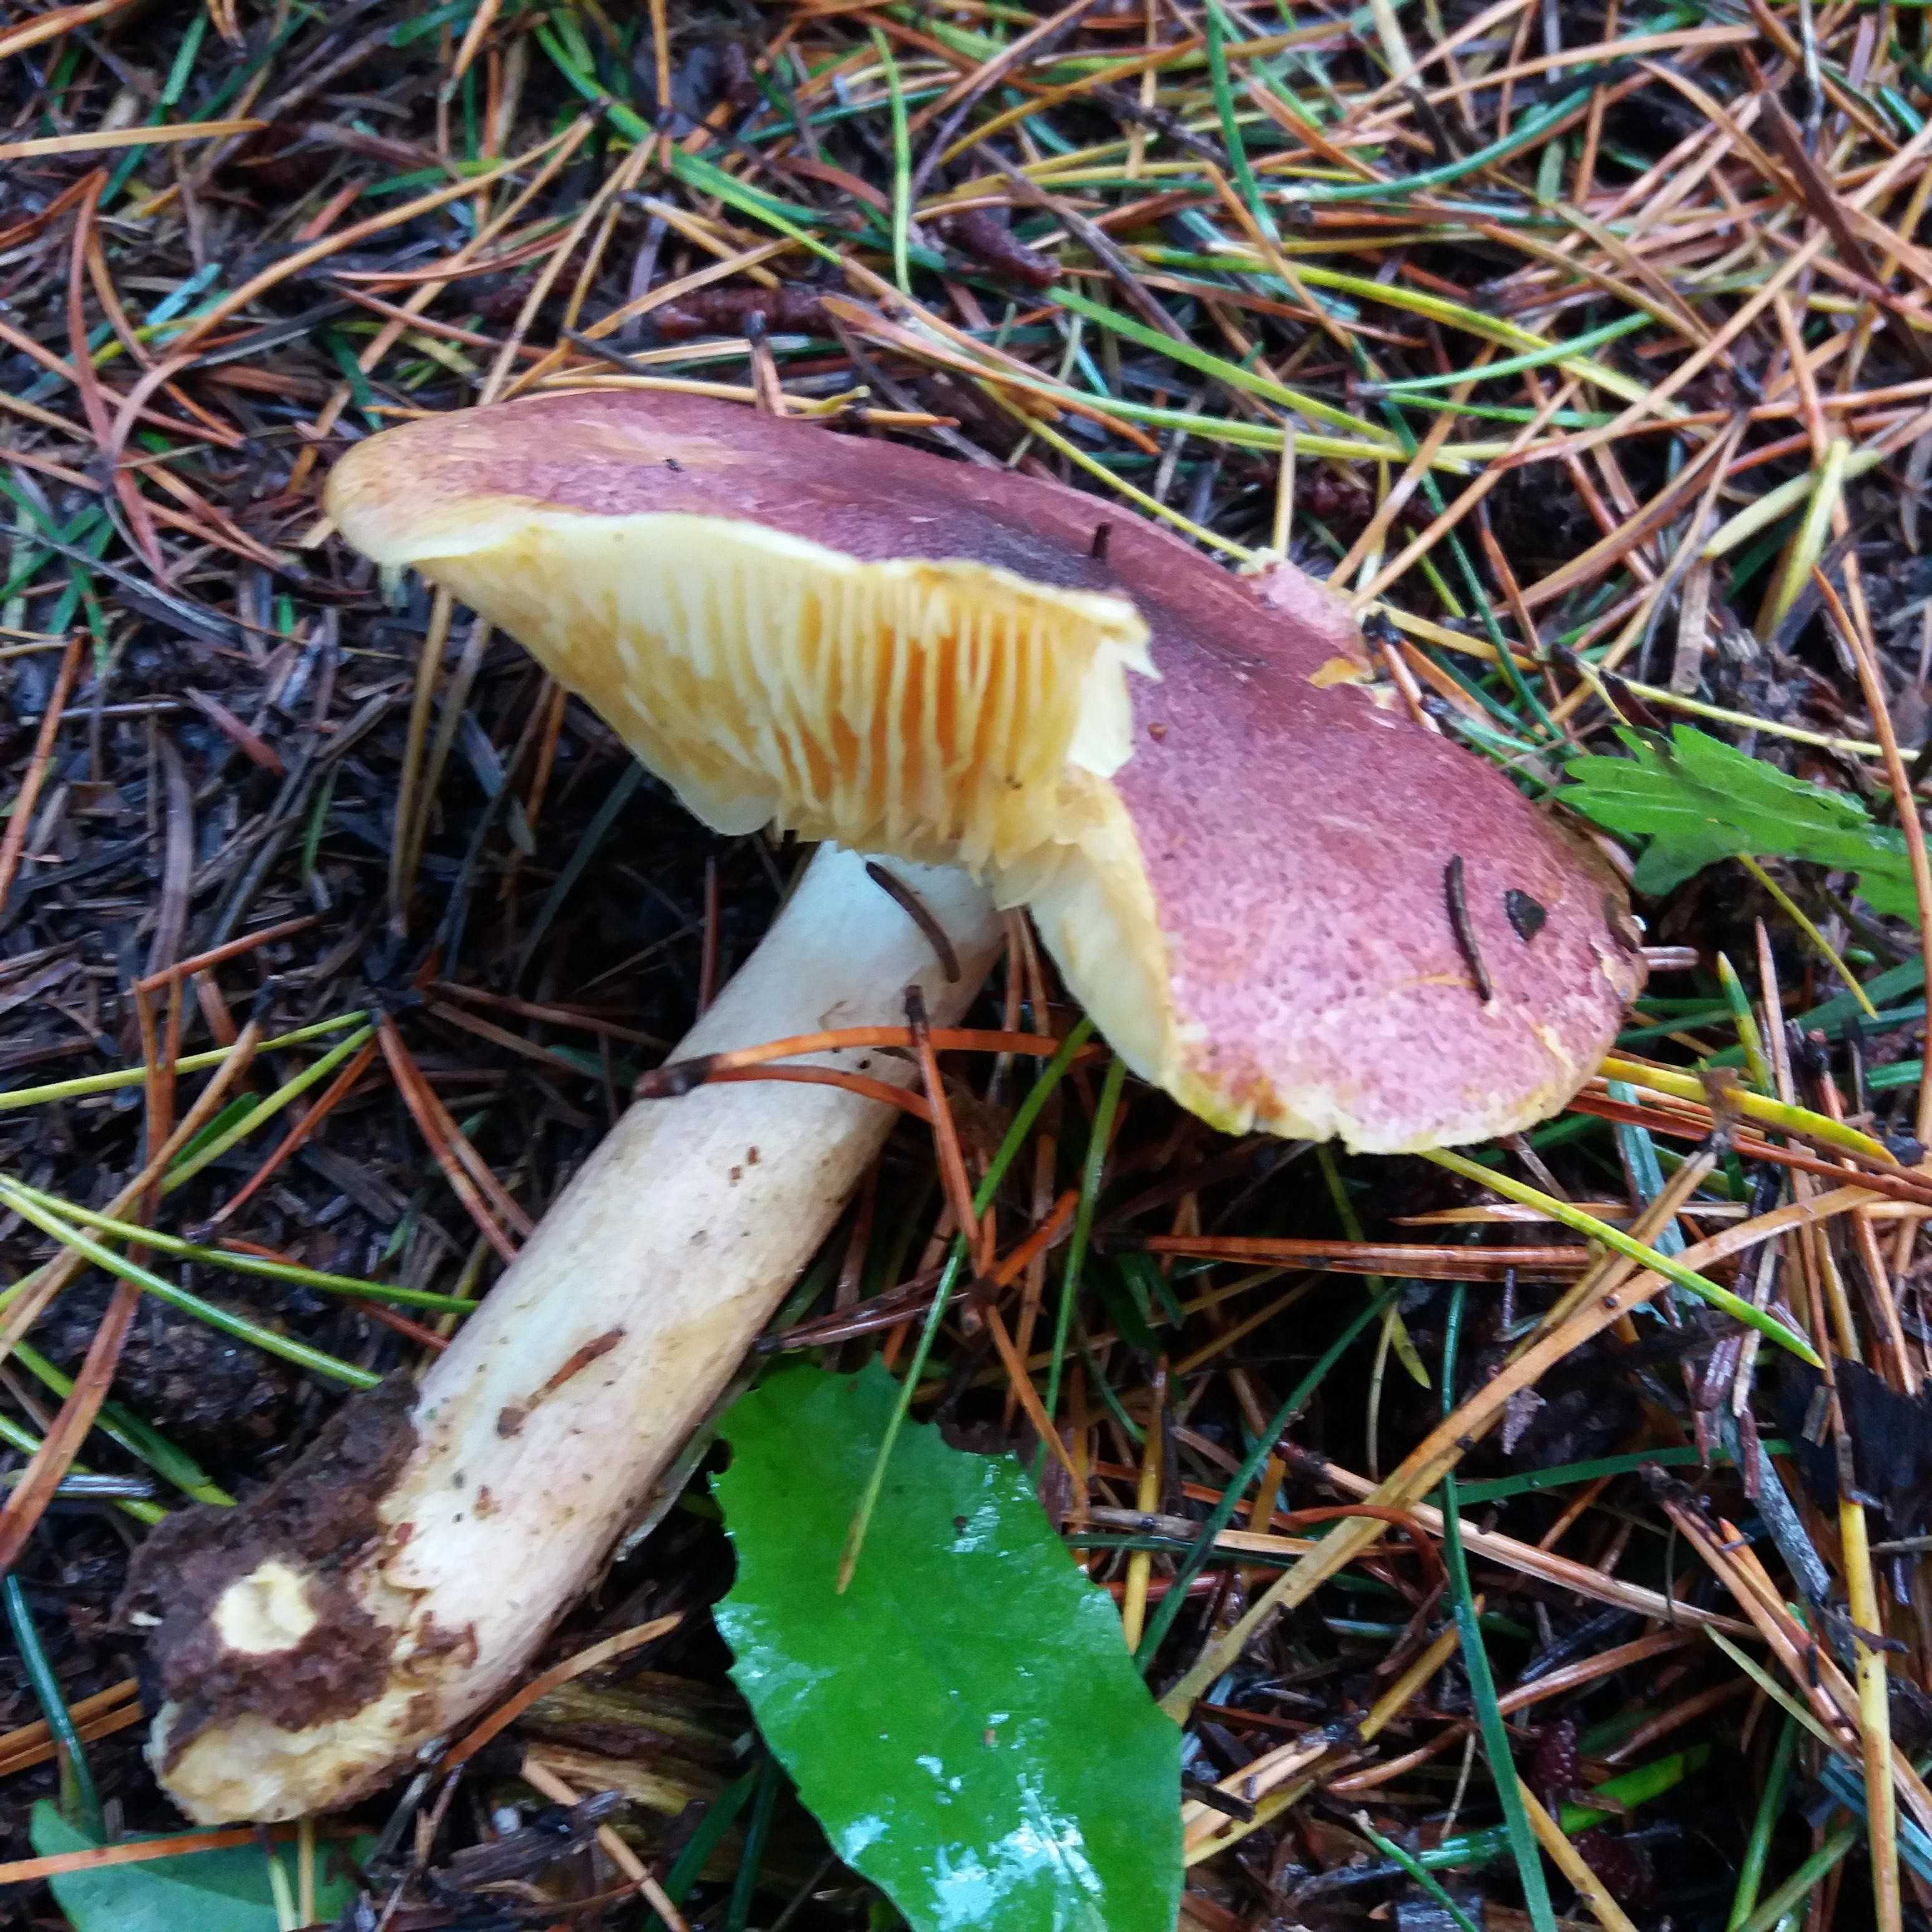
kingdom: Fungi
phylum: Basidiomycota
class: Agaricomycetes
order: Agaricales
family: Tricholomataceae
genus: Tricholomopsis
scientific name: Tricholomopsis rutilans
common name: purpur-væbnerhat
